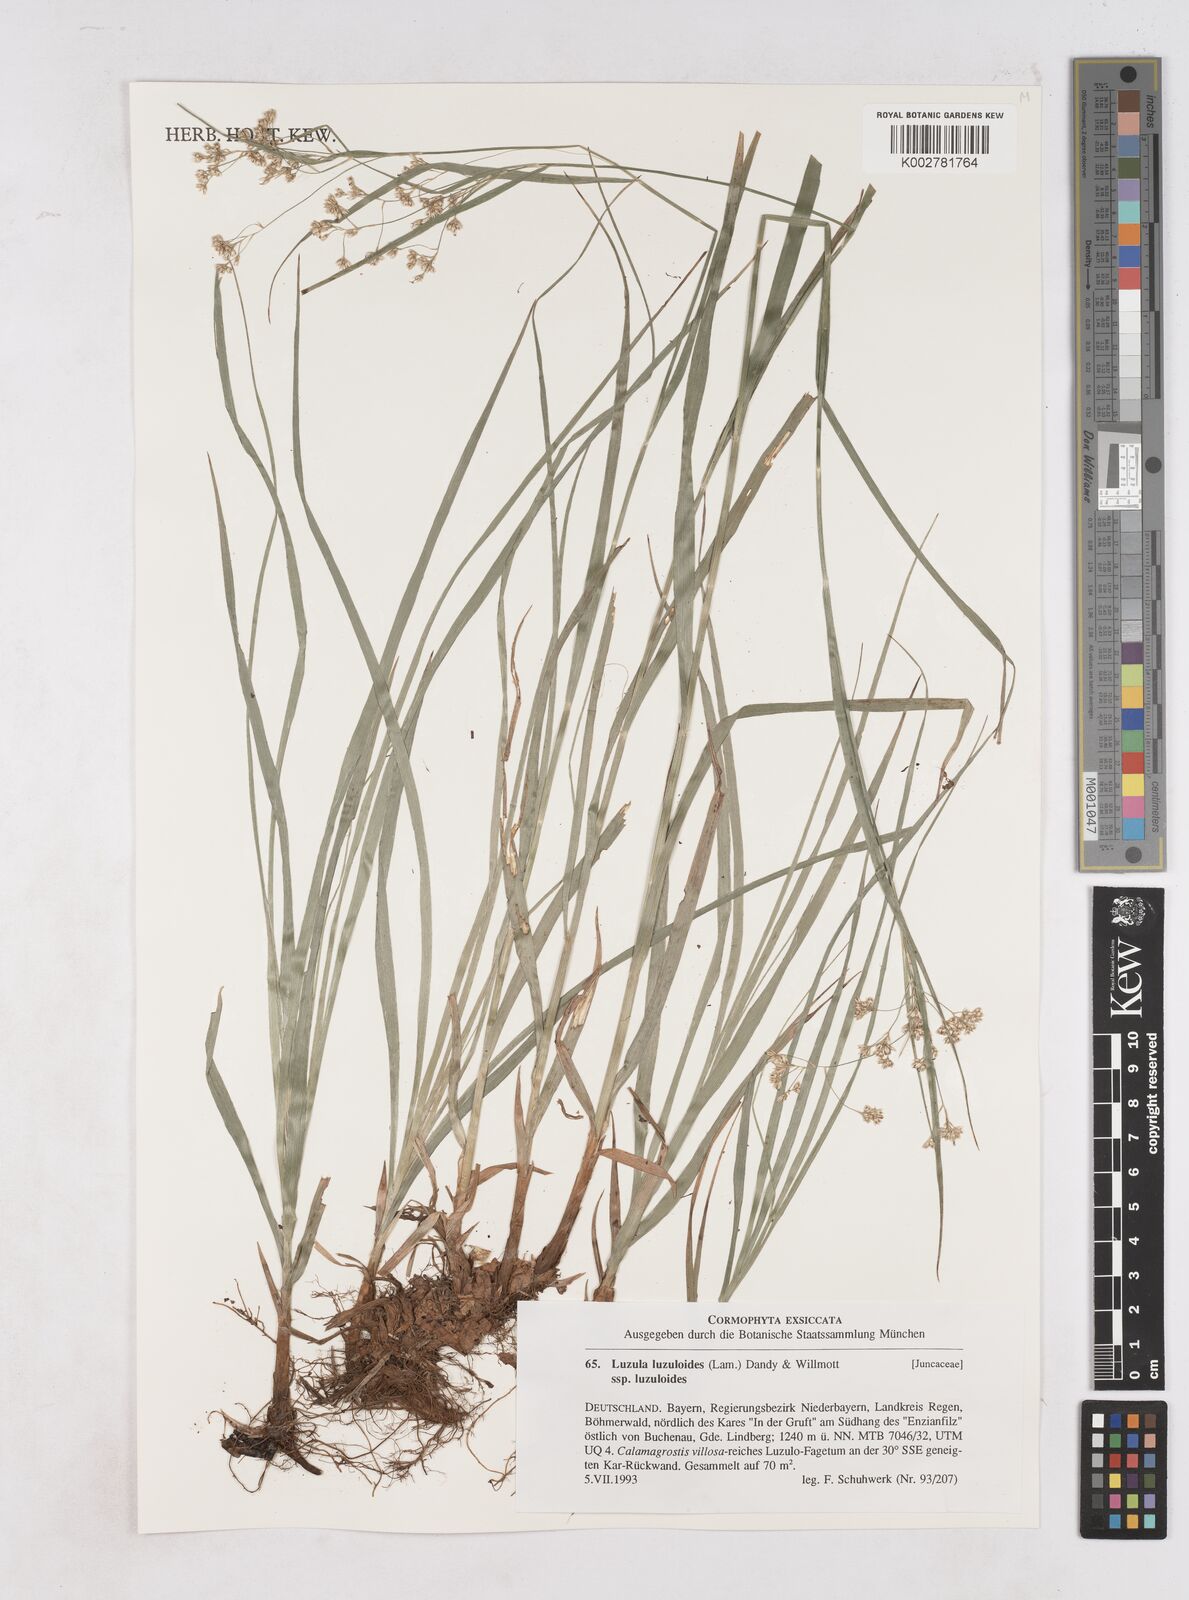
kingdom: Plantae
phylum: Tracheophyta
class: Liliopsida
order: Poales
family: Juncaceae
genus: Luzula
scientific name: Luzula luzuloides
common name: White wood-rush
